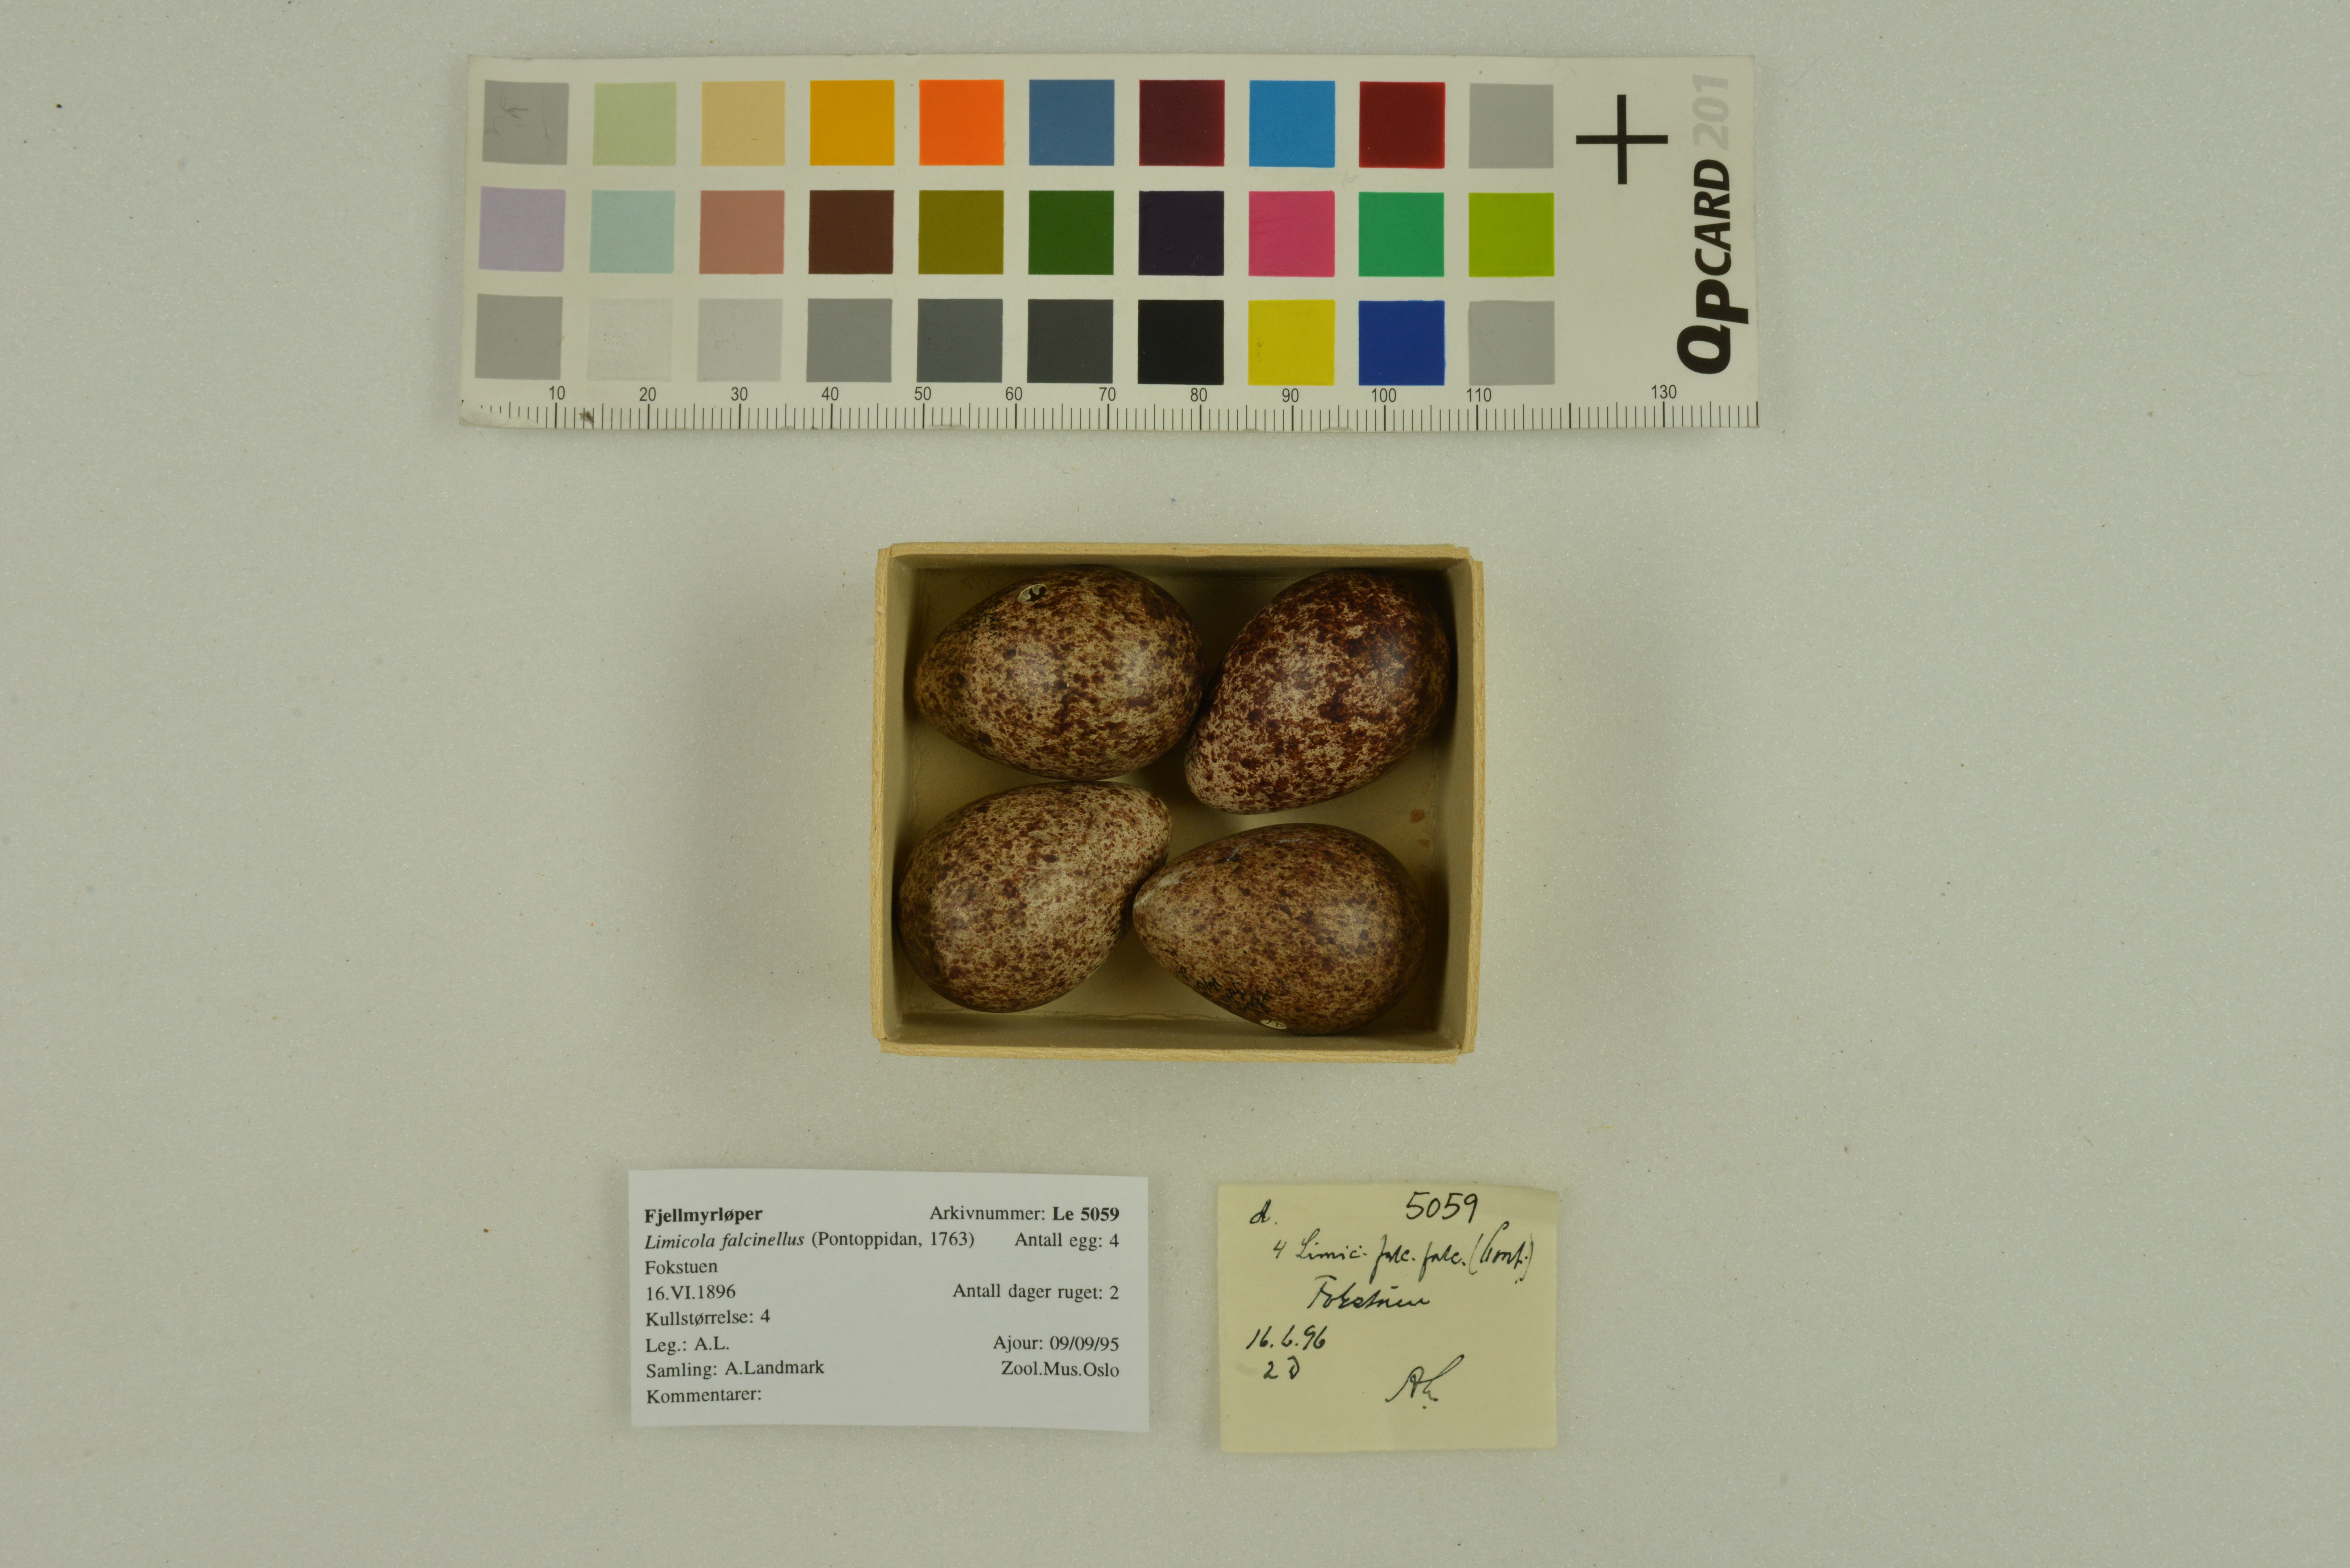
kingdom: Animalia
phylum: Chordata
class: Aves
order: Charadriiformes
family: Scolopacidae
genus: Calidris
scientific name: Calidris falcinellus
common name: Broad-billed sandpiper
